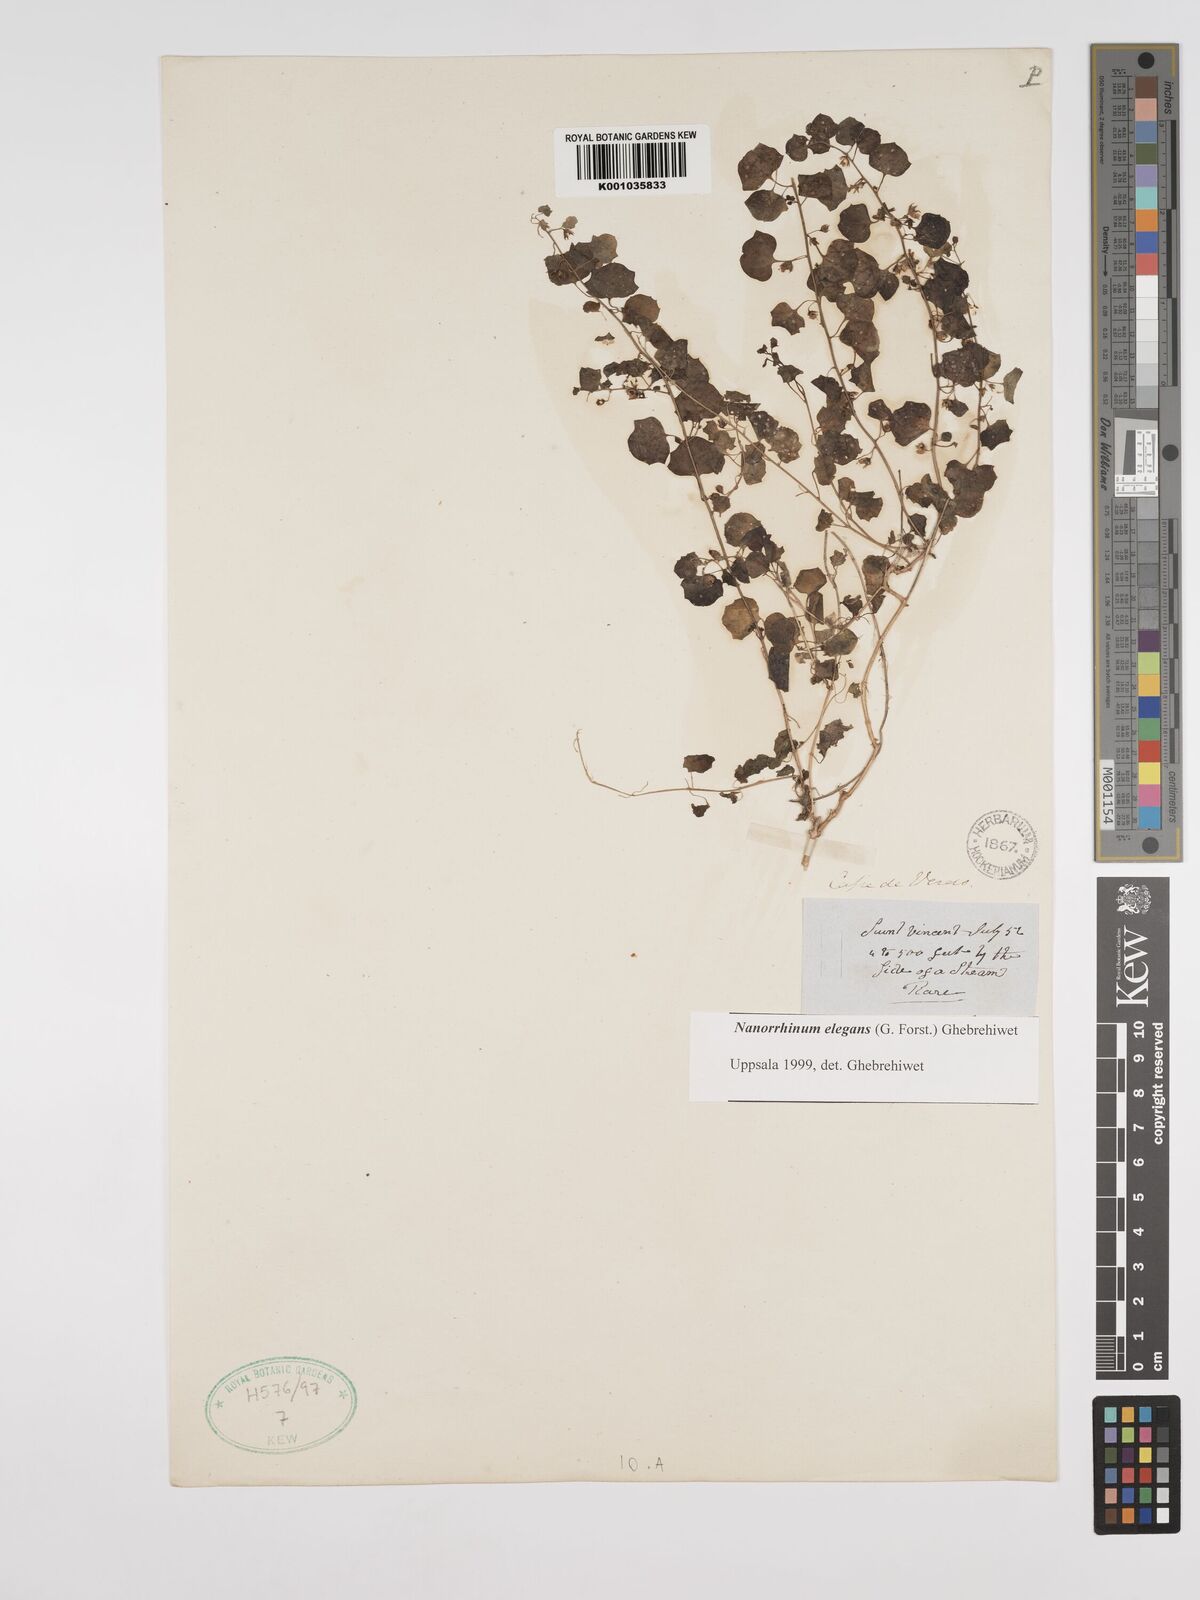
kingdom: Plantae
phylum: Tracheophyta
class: Magnoliopsida
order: Lamiales
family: Plantaginaceae
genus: Nanorrhinum
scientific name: Nanorrhinum elegans
